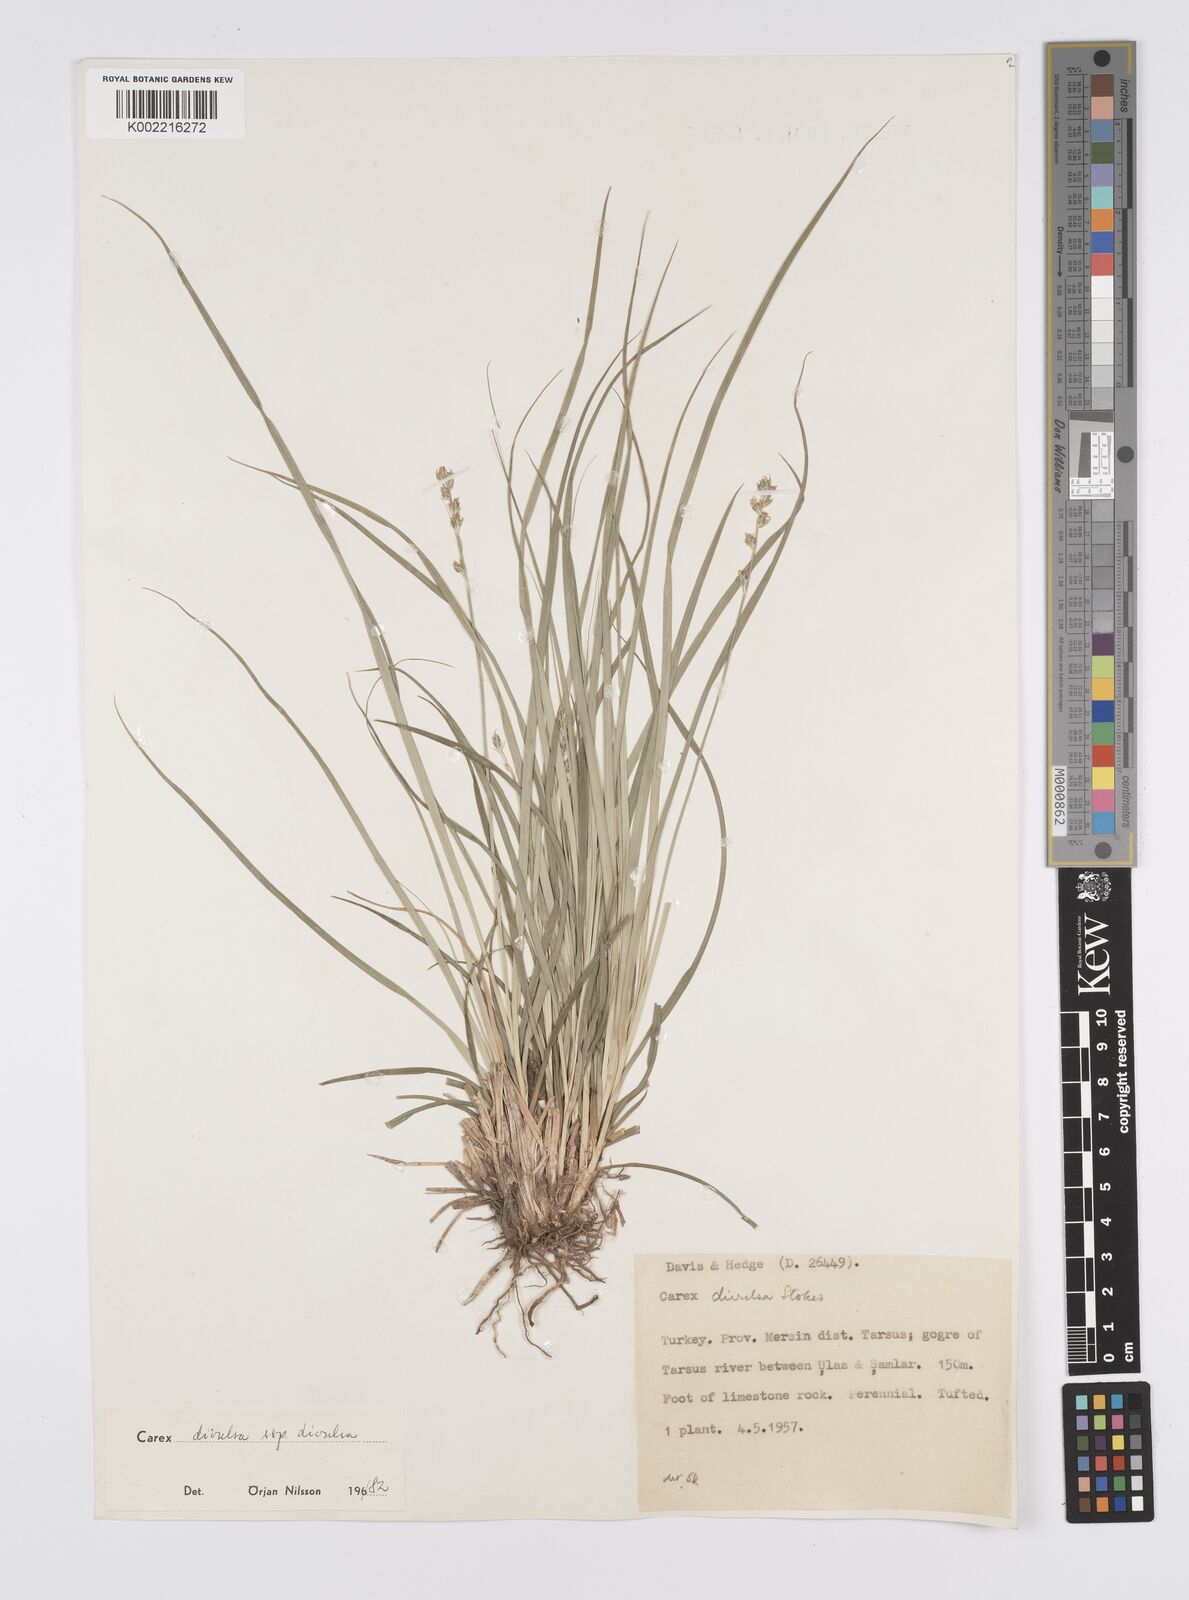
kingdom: Plantae
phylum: Tracheophyta
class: Liliopsida
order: Poales
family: Cyperaceae
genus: Carex
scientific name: Carex divulsa
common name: Grassland sedge
